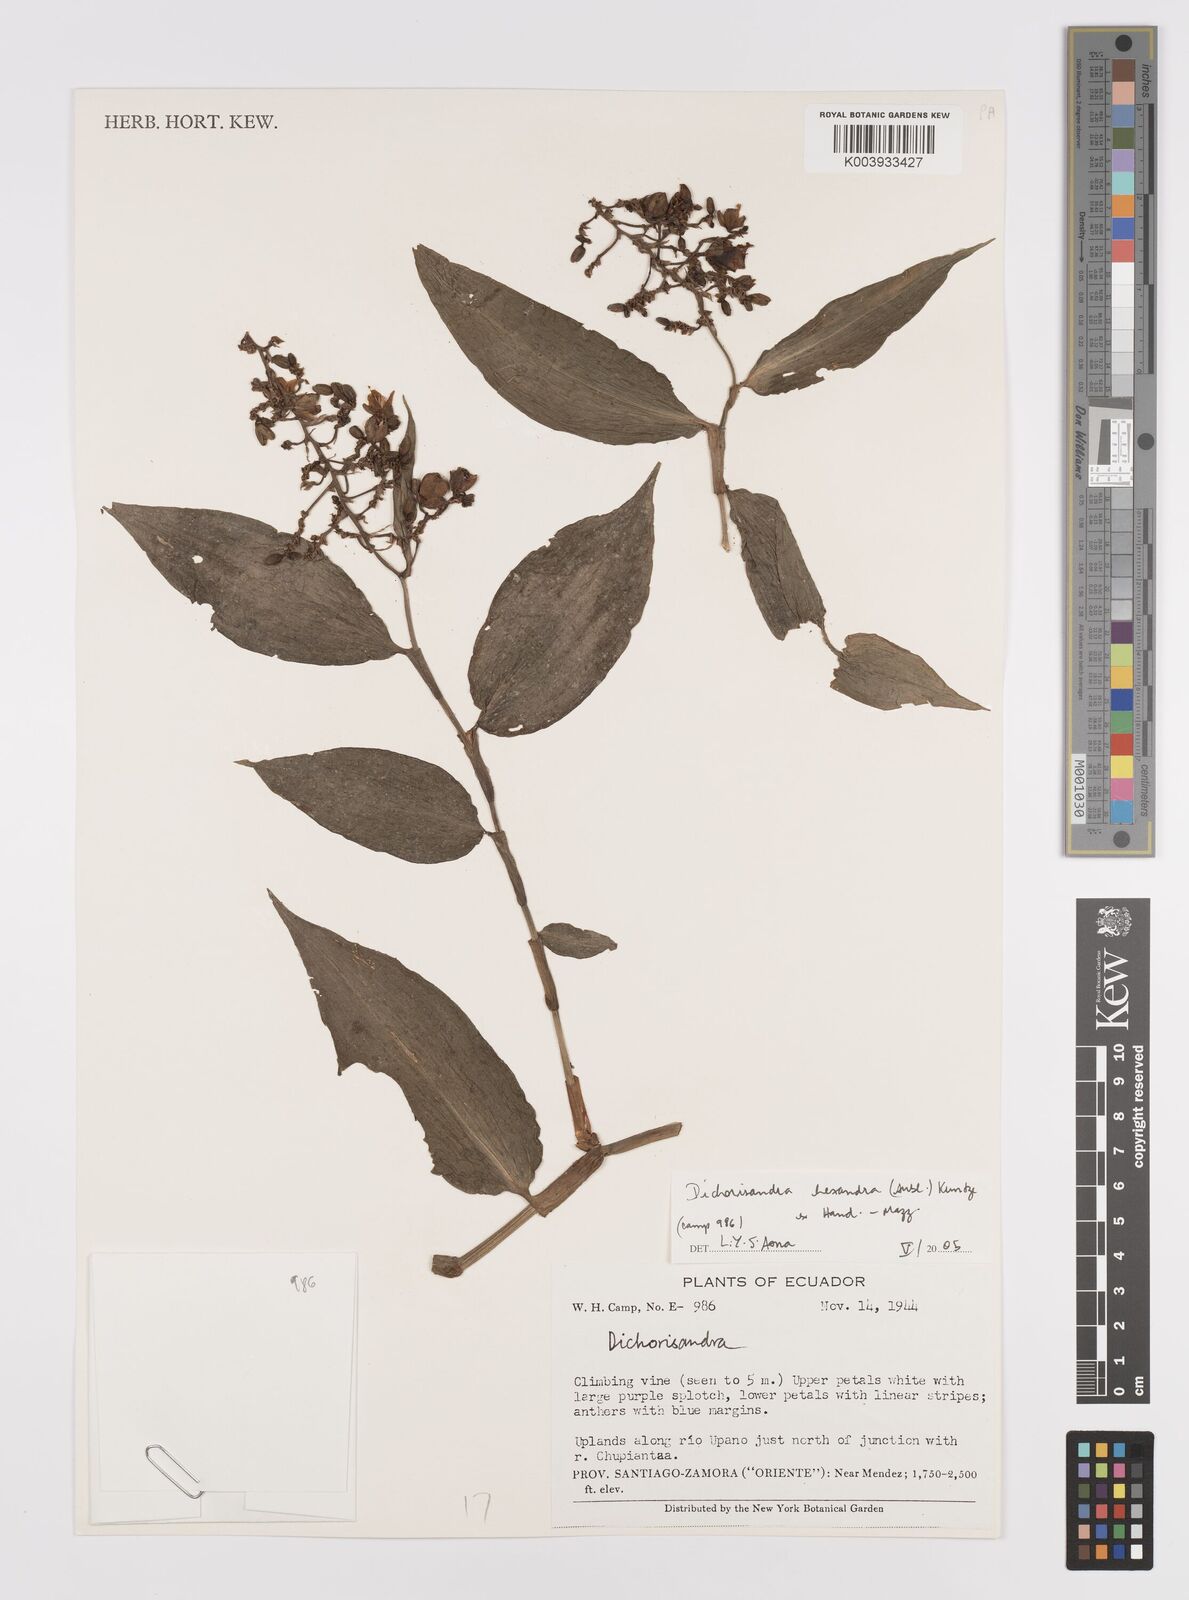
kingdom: Plantae
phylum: Tracheophyta
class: Liliopsida
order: Commelinales
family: Commelinaceae
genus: Dichorisandra
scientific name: Dichorisandra hexandra
